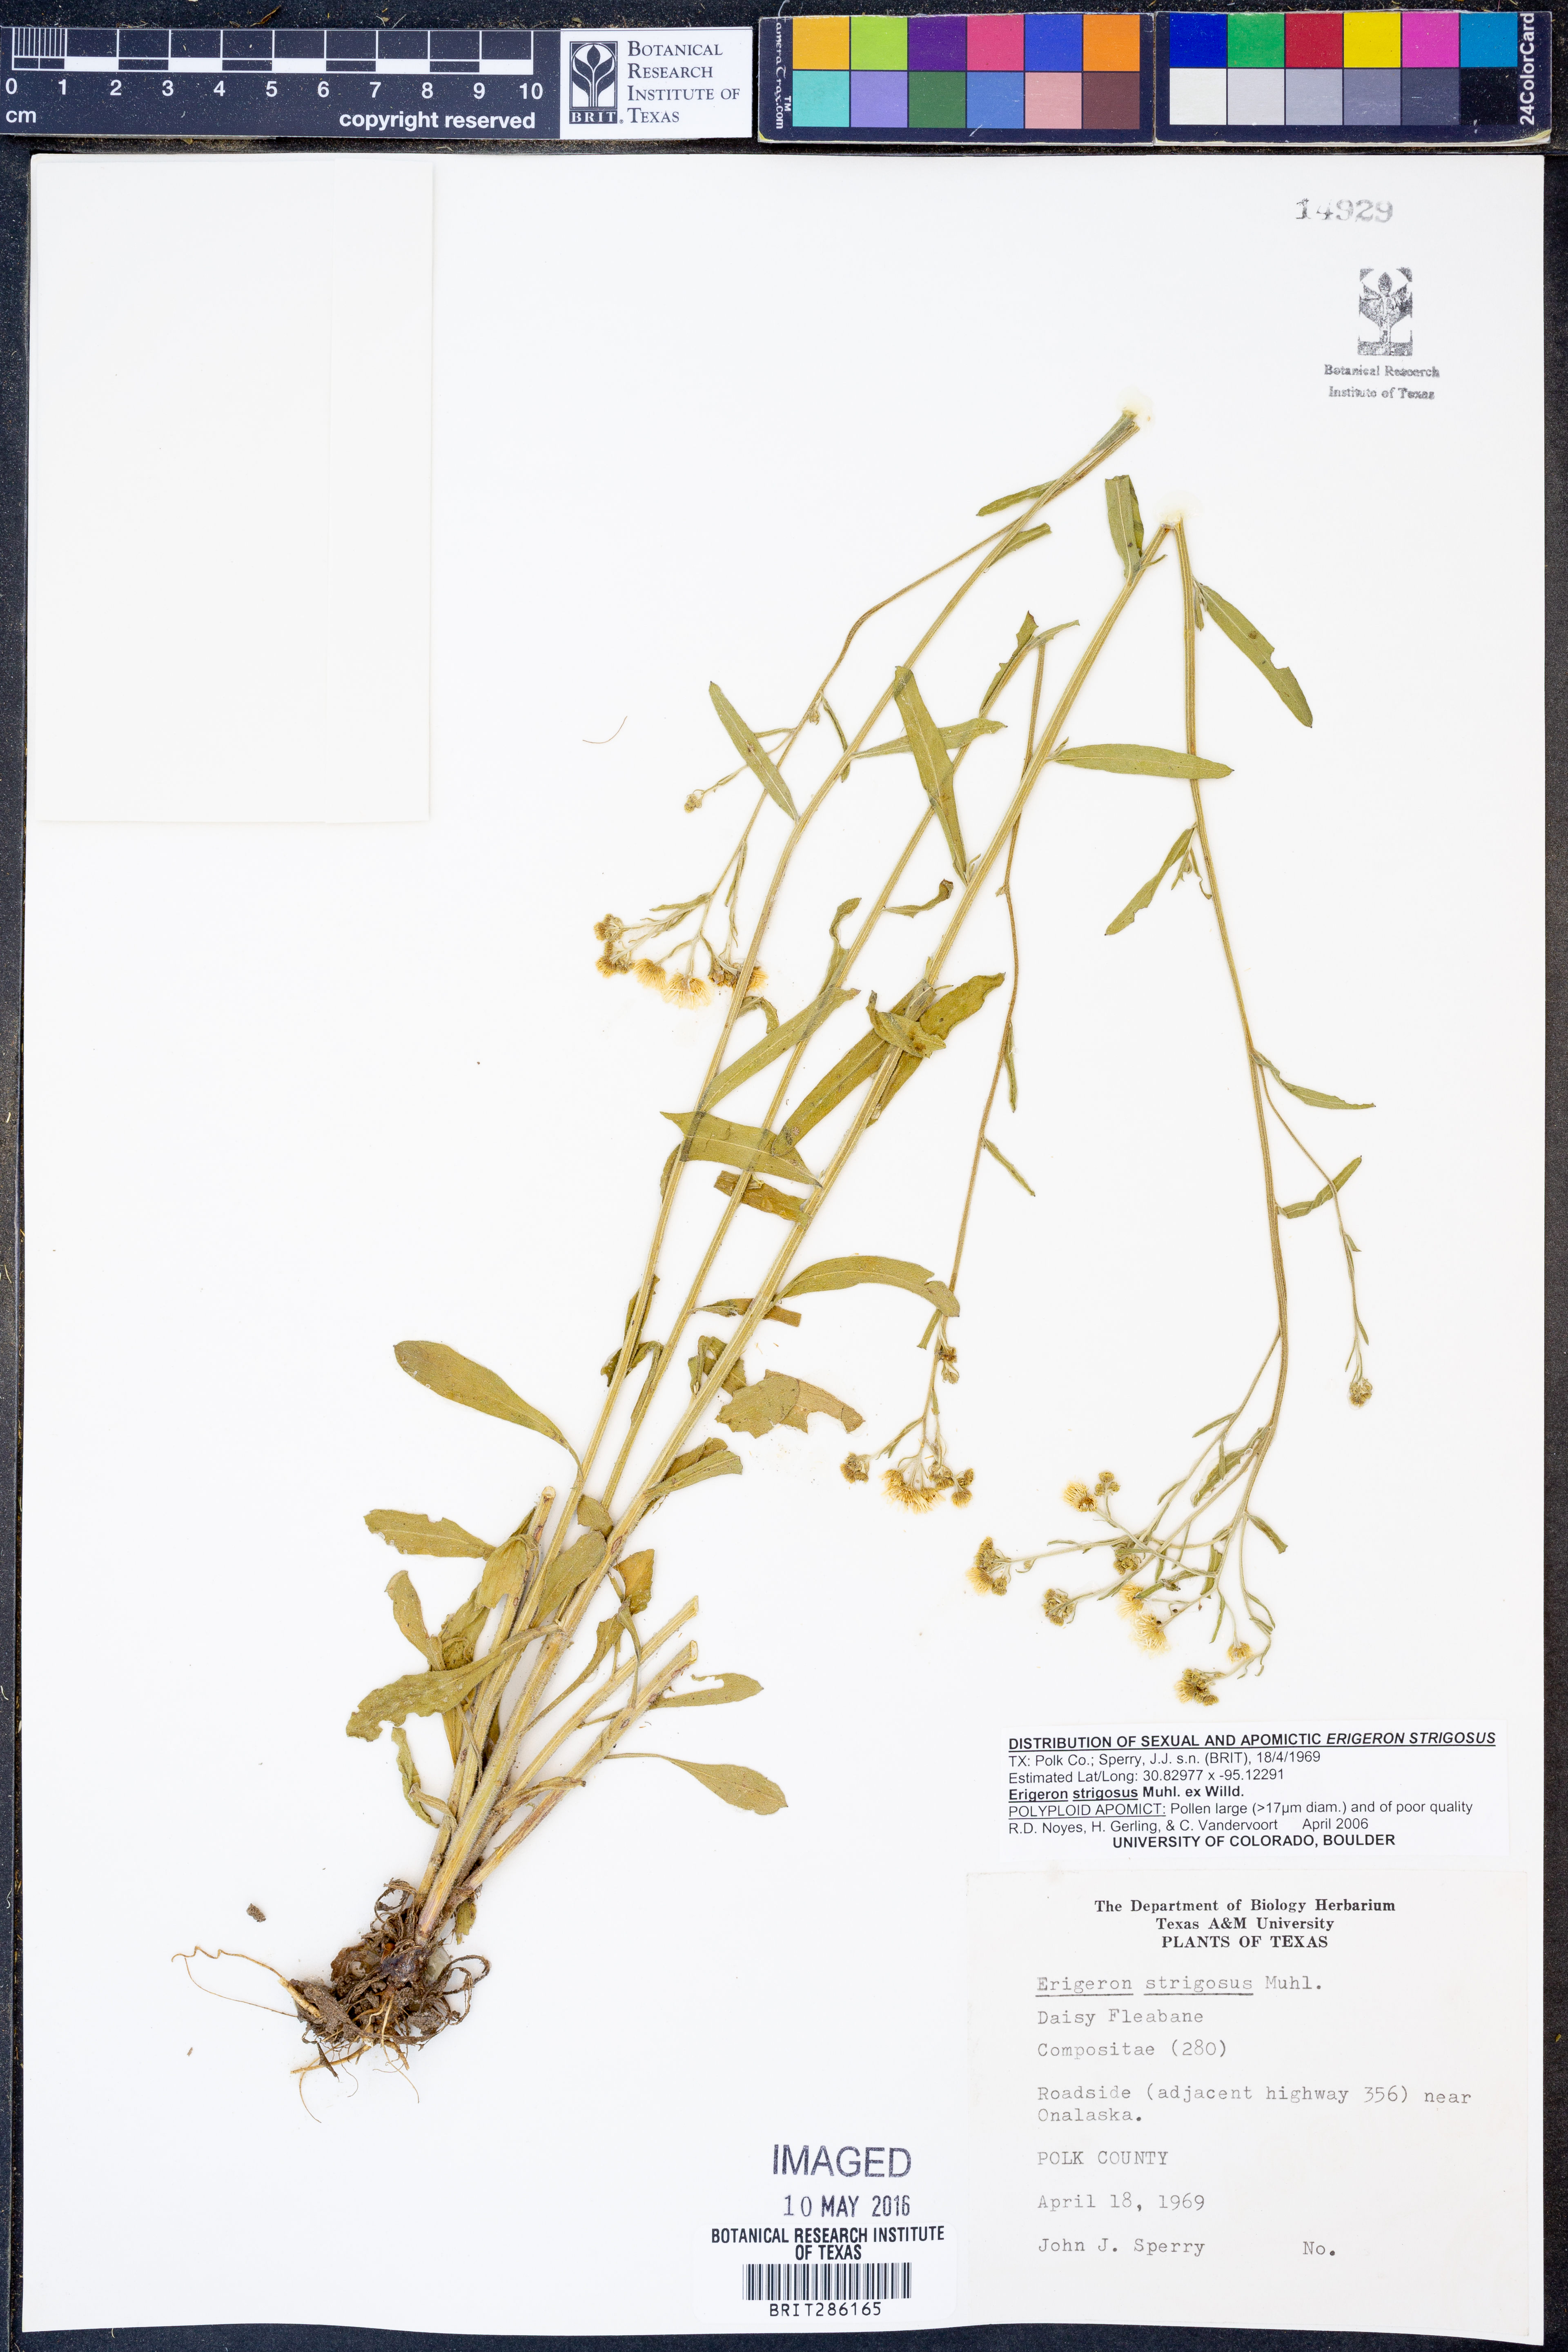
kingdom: Plantae
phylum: Tracheophyta
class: Magnoliopsida
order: Asterales
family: Asteraceae
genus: Erigeron
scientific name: Erigeron strigosus
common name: Common eastern fleabane
